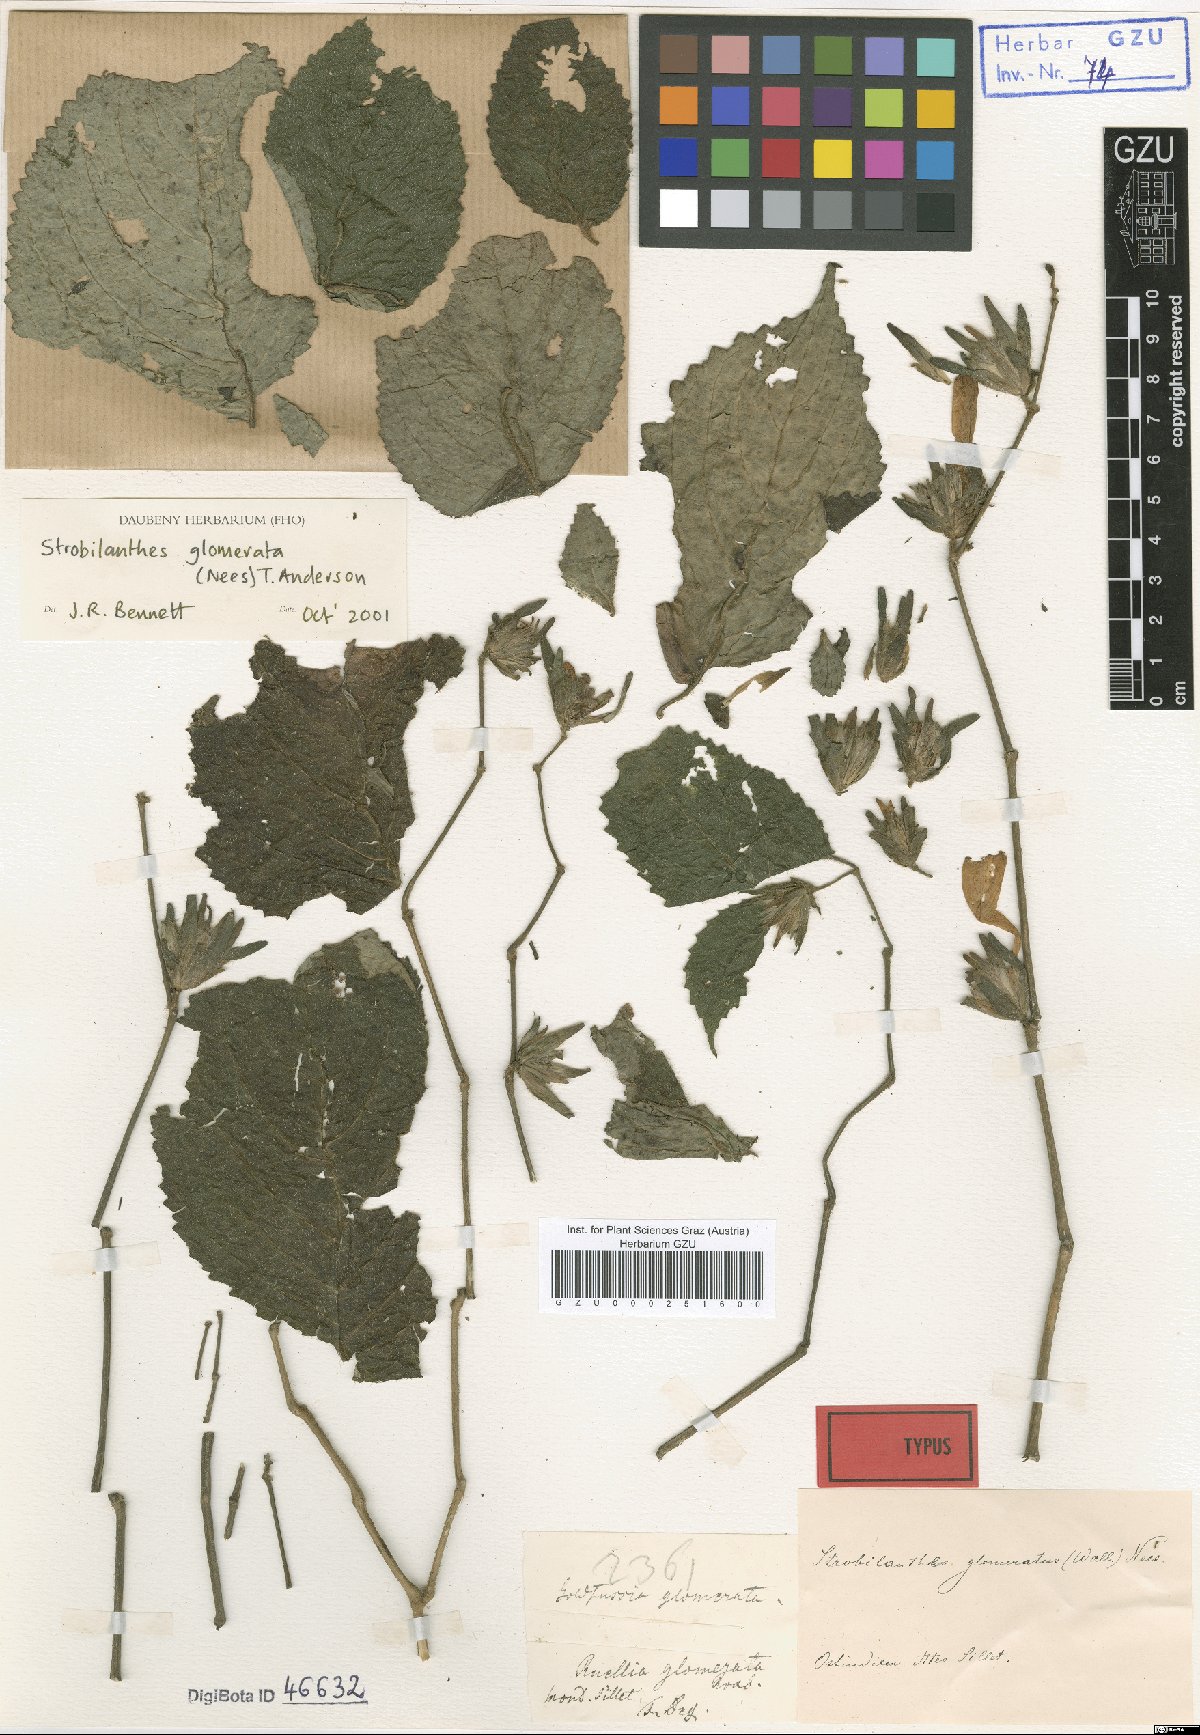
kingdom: Plantae
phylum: Tracheophyta
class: Magnoliopsida
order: Lamiales
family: Acanthaceae
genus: Strobilanthes
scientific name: Strobilanthes glomerata
